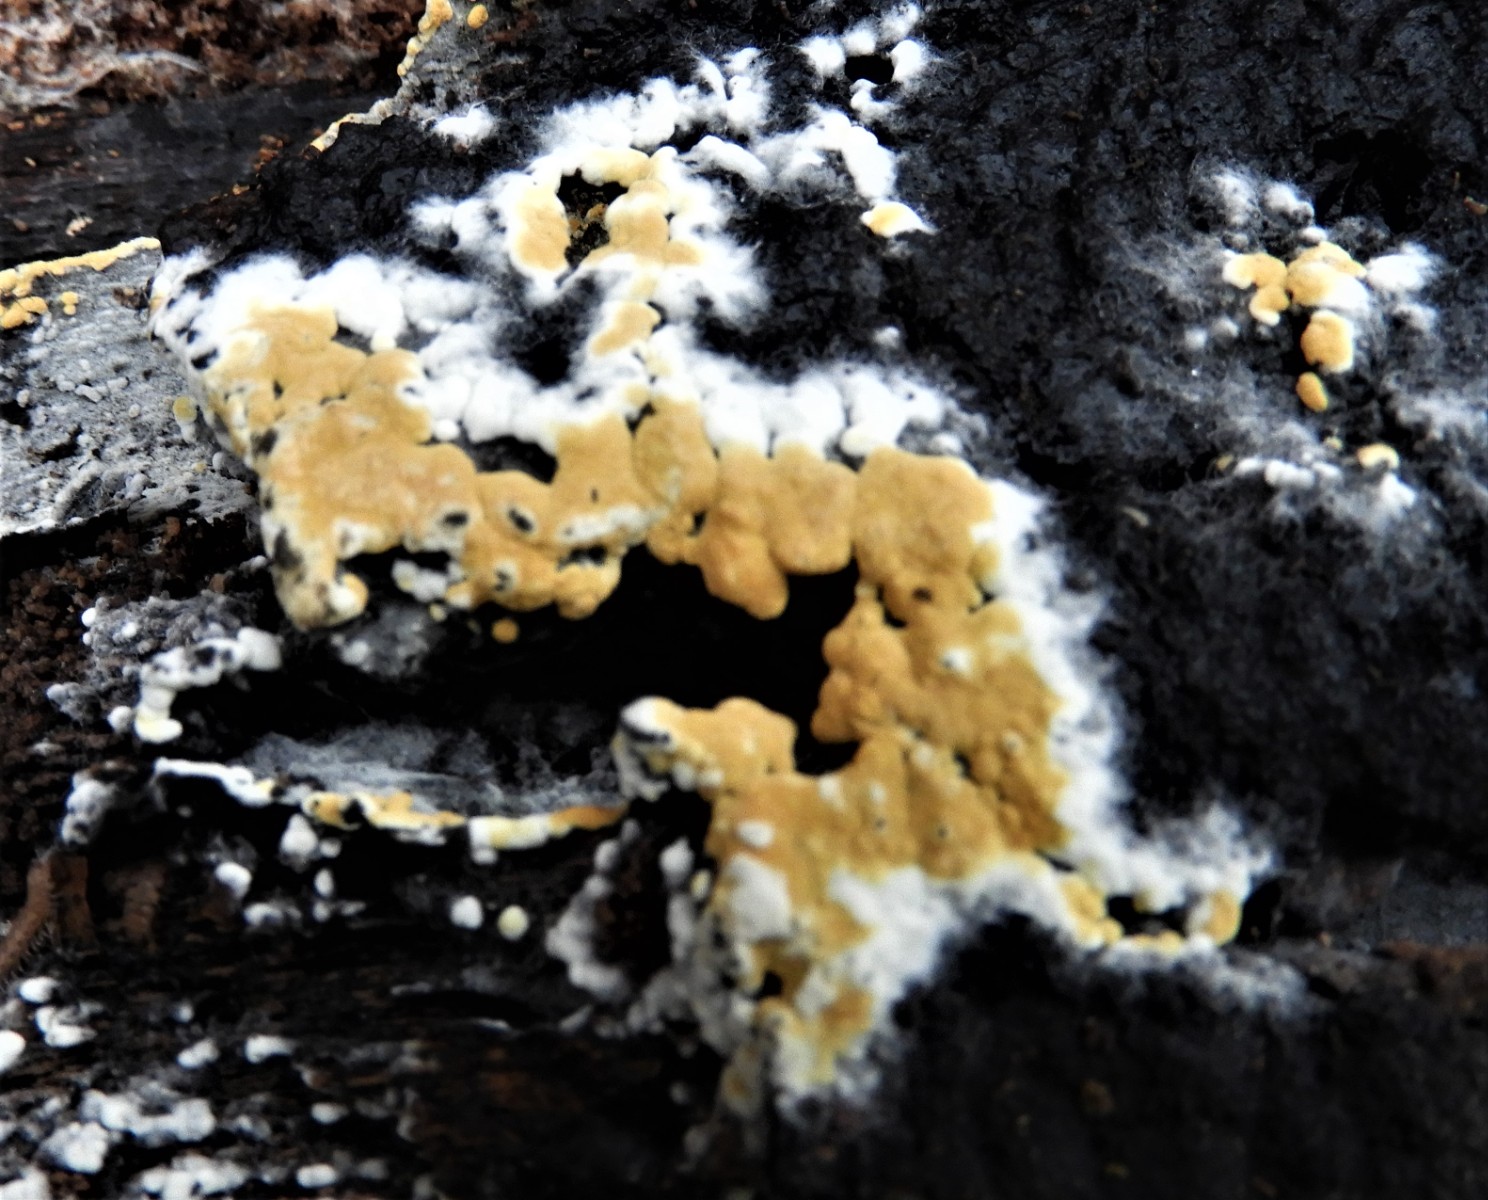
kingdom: Fungi
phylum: Basidiomycota
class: Agaricomycetes
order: Cantharellales
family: Botryobasidiaceae
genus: Botryobasidium
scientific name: Botryobasidium aureum
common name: gylden spindhinde
